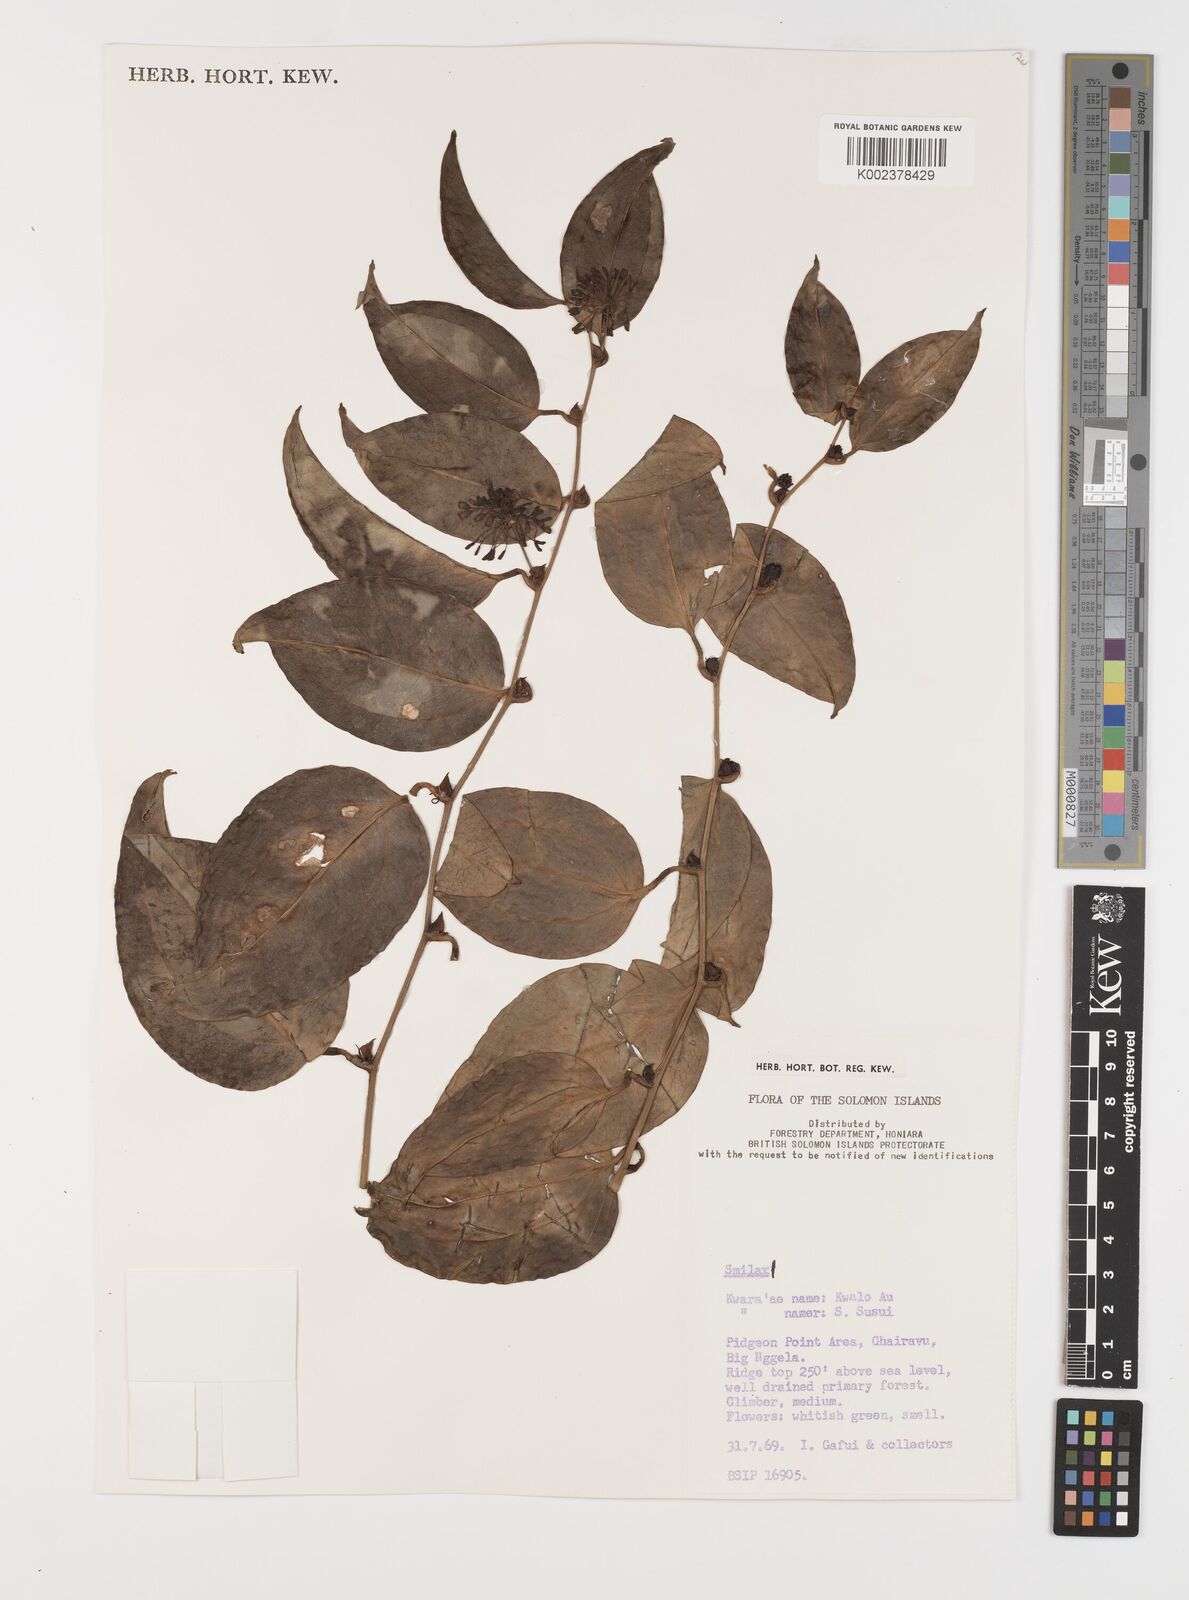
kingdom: Plantae
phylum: Tracheophyta
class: Liliopsida
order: Liliales
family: Smilacaceae
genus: Smilax
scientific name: Smilax
